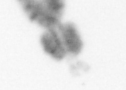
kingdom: Animalia
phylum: Arthropoda
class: Copepoda
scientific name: Copepoda
